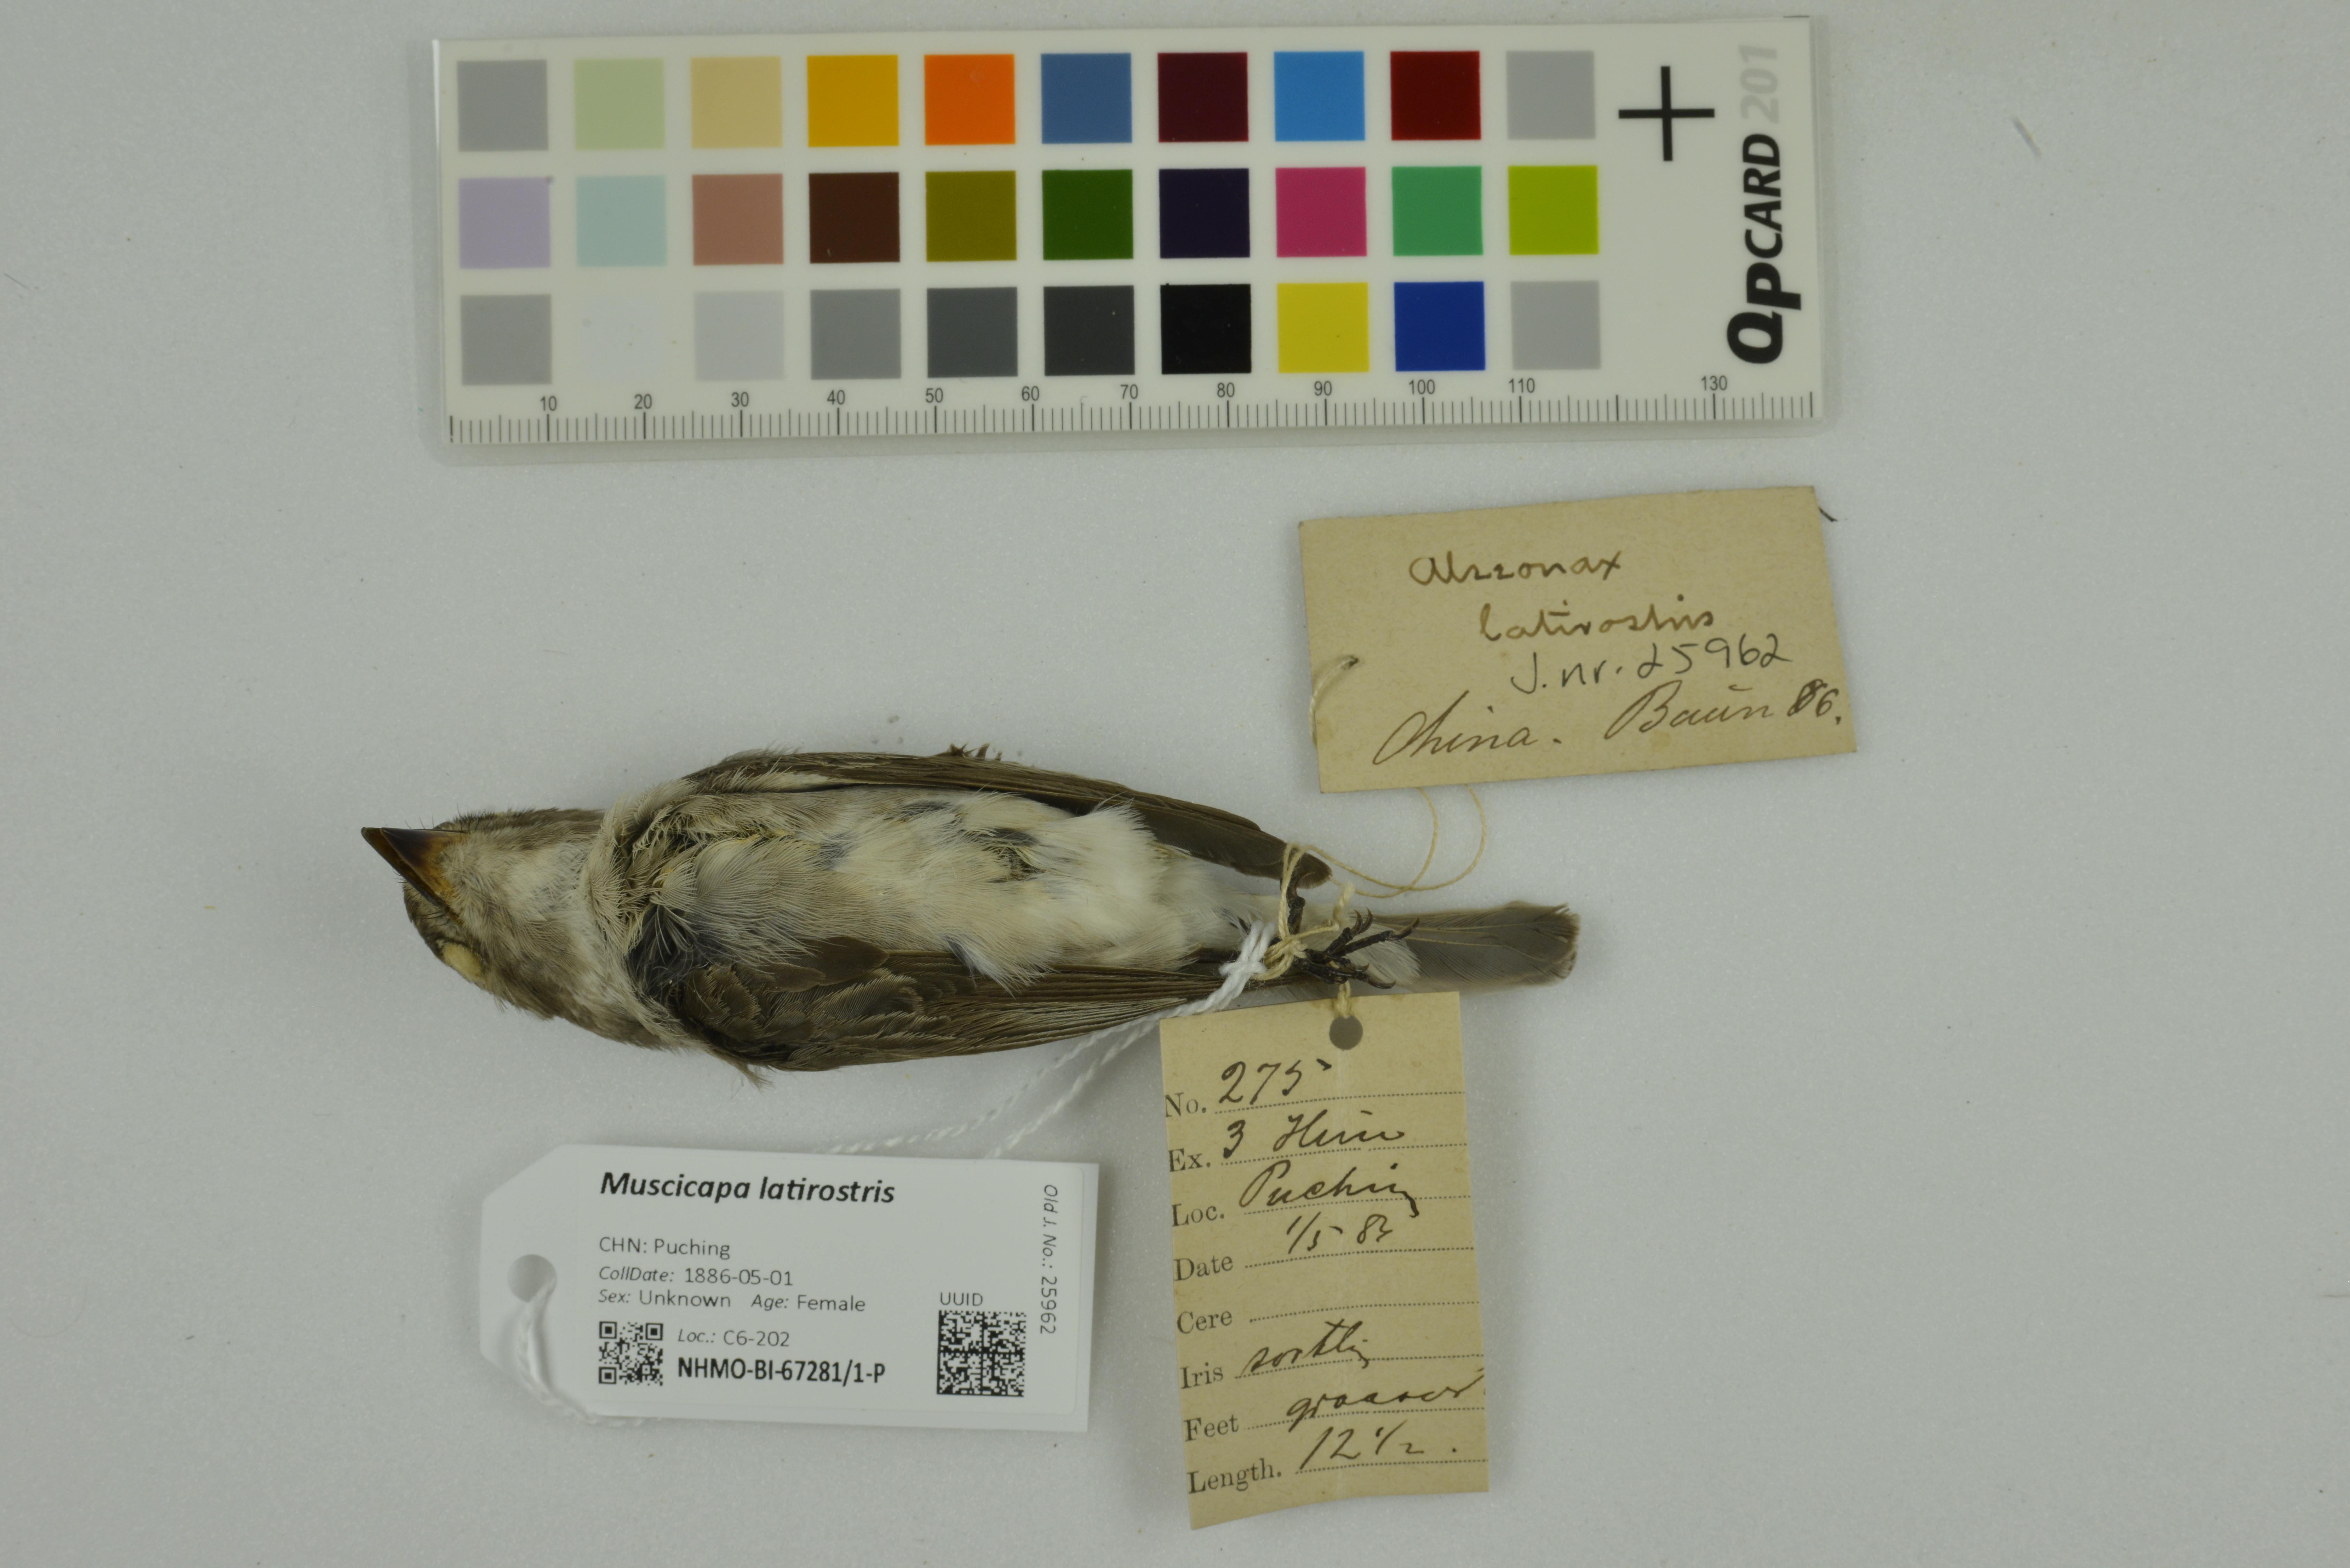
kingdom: Animalia
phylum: Chordata
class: Aves
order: Passeriformes
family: Muscicapidae
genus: Muscicapa
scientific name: Muscicapa latirostris
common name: Asian brown flycatcher
